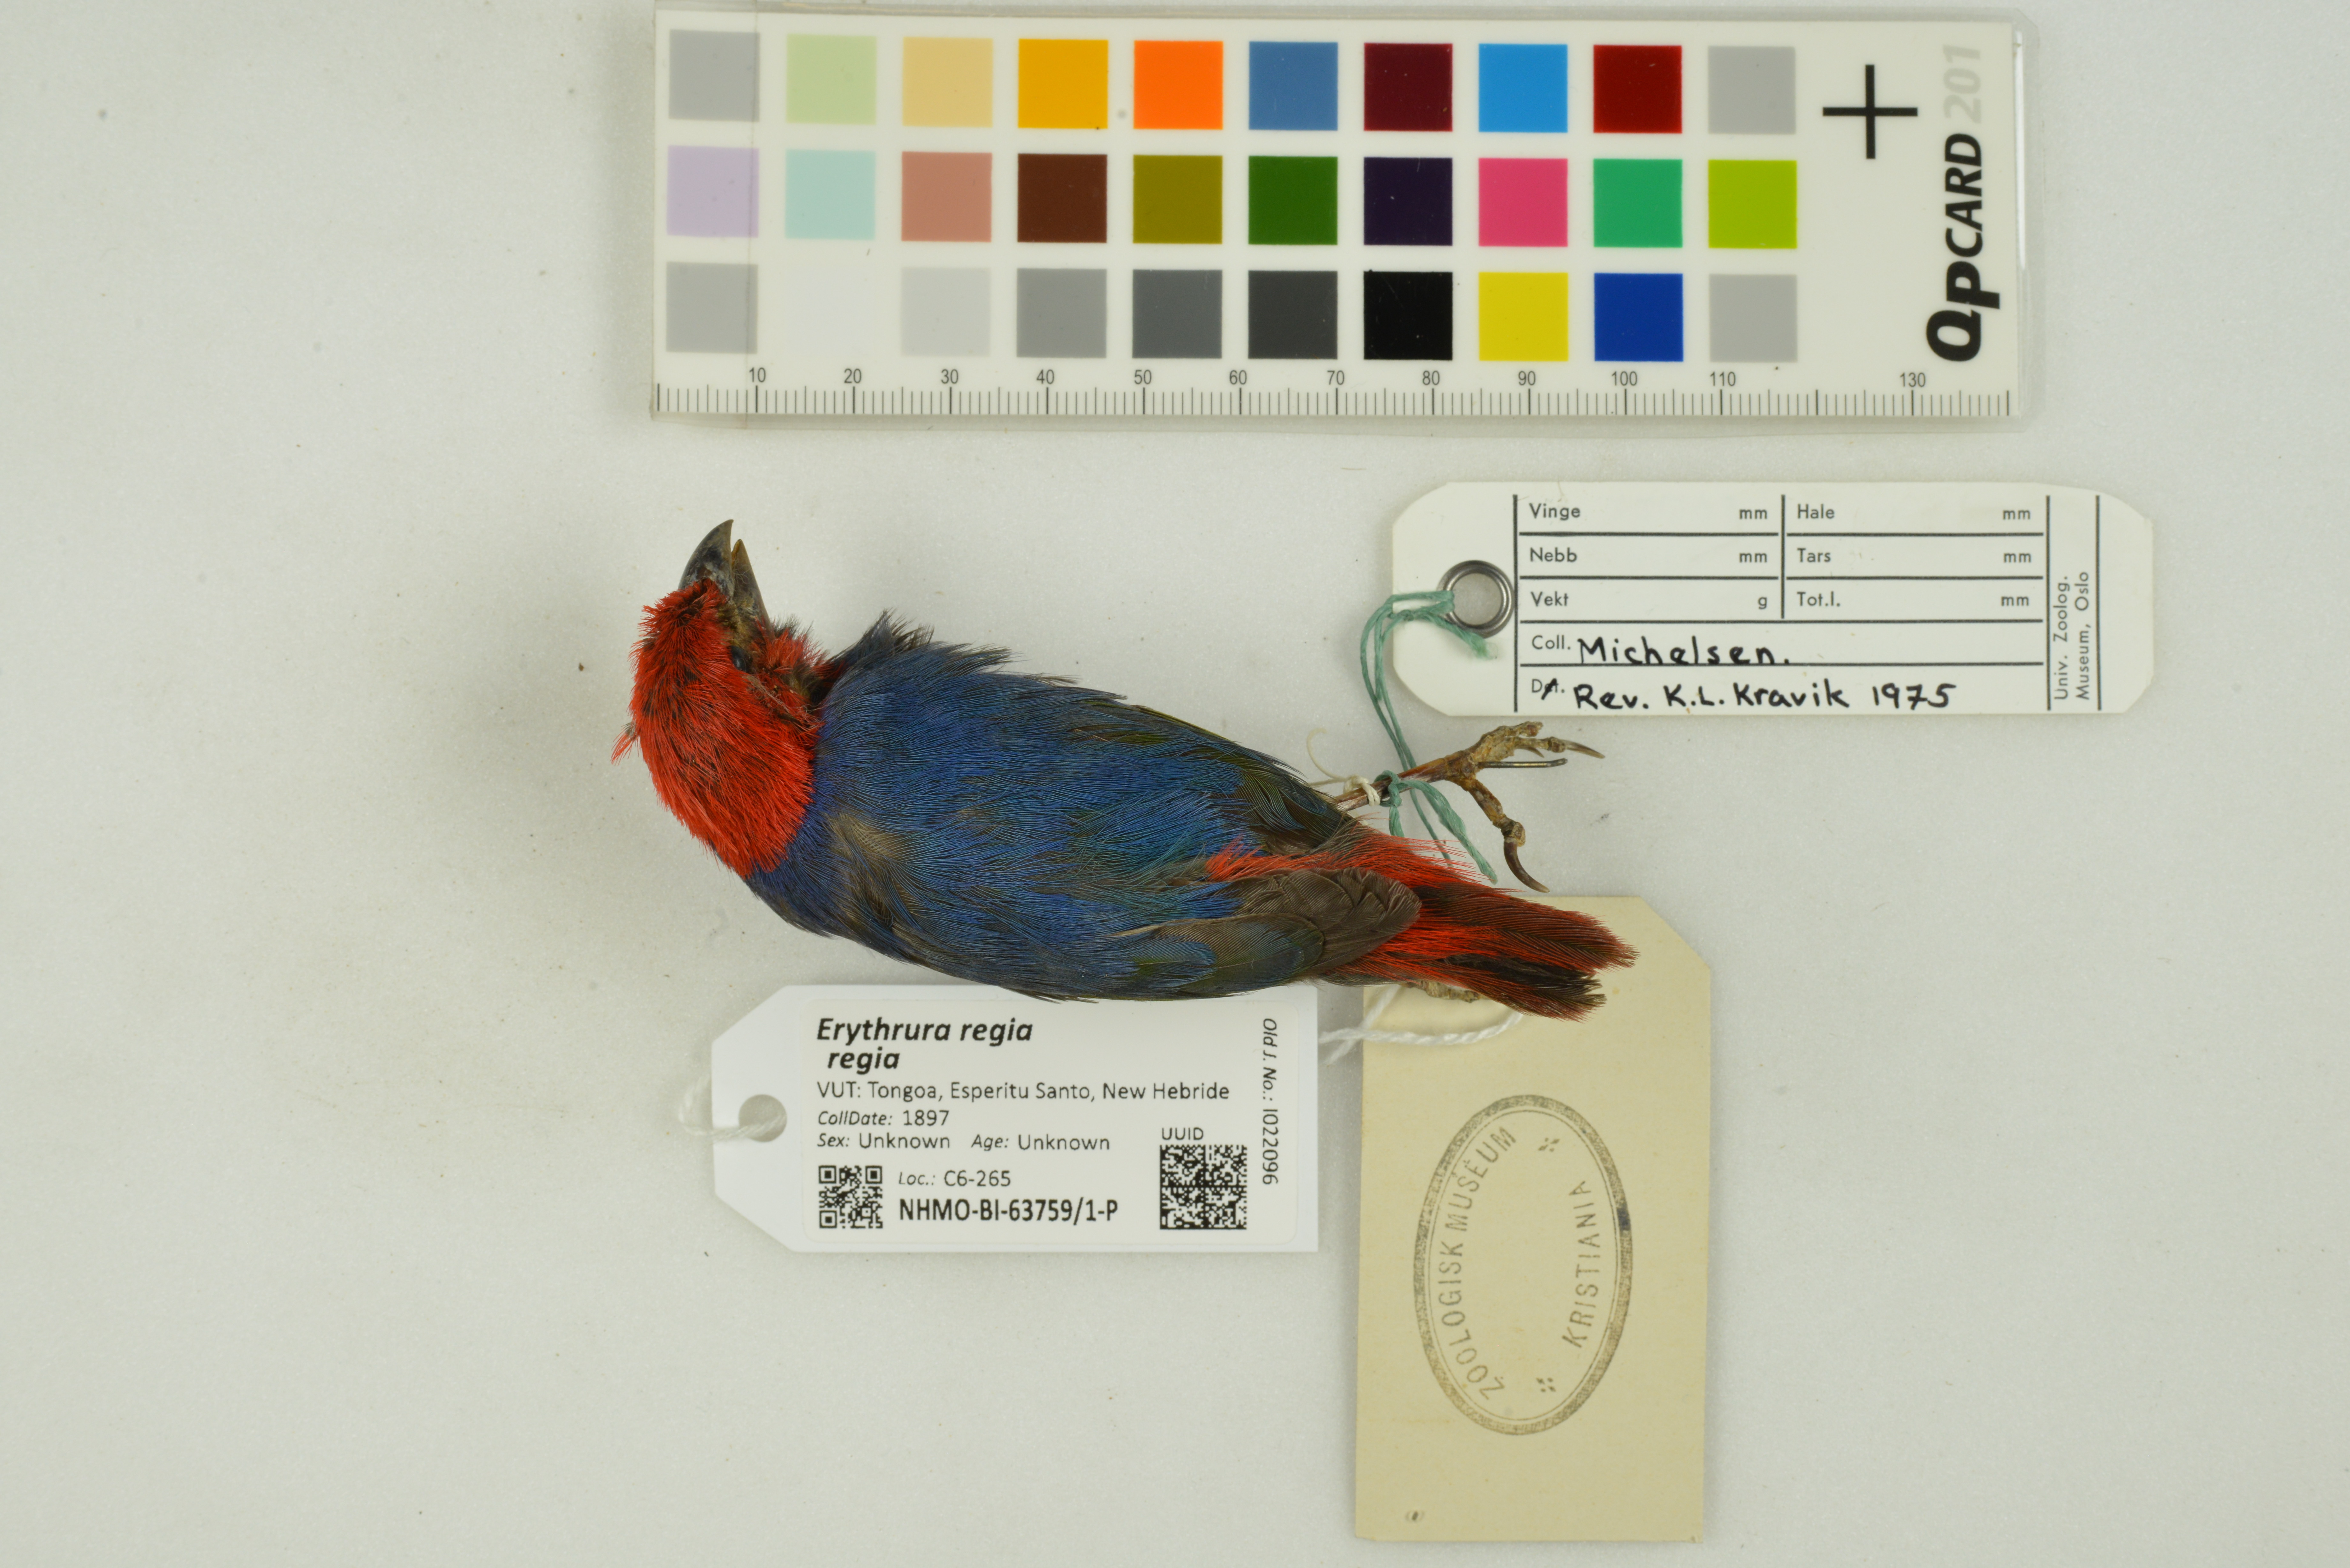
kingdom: Animalia
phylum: Chordata
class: Aves
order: Passeriformes
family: Estrildidae
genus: Erythrura
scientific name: Erythrura regia
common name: Royal parrotfinch
